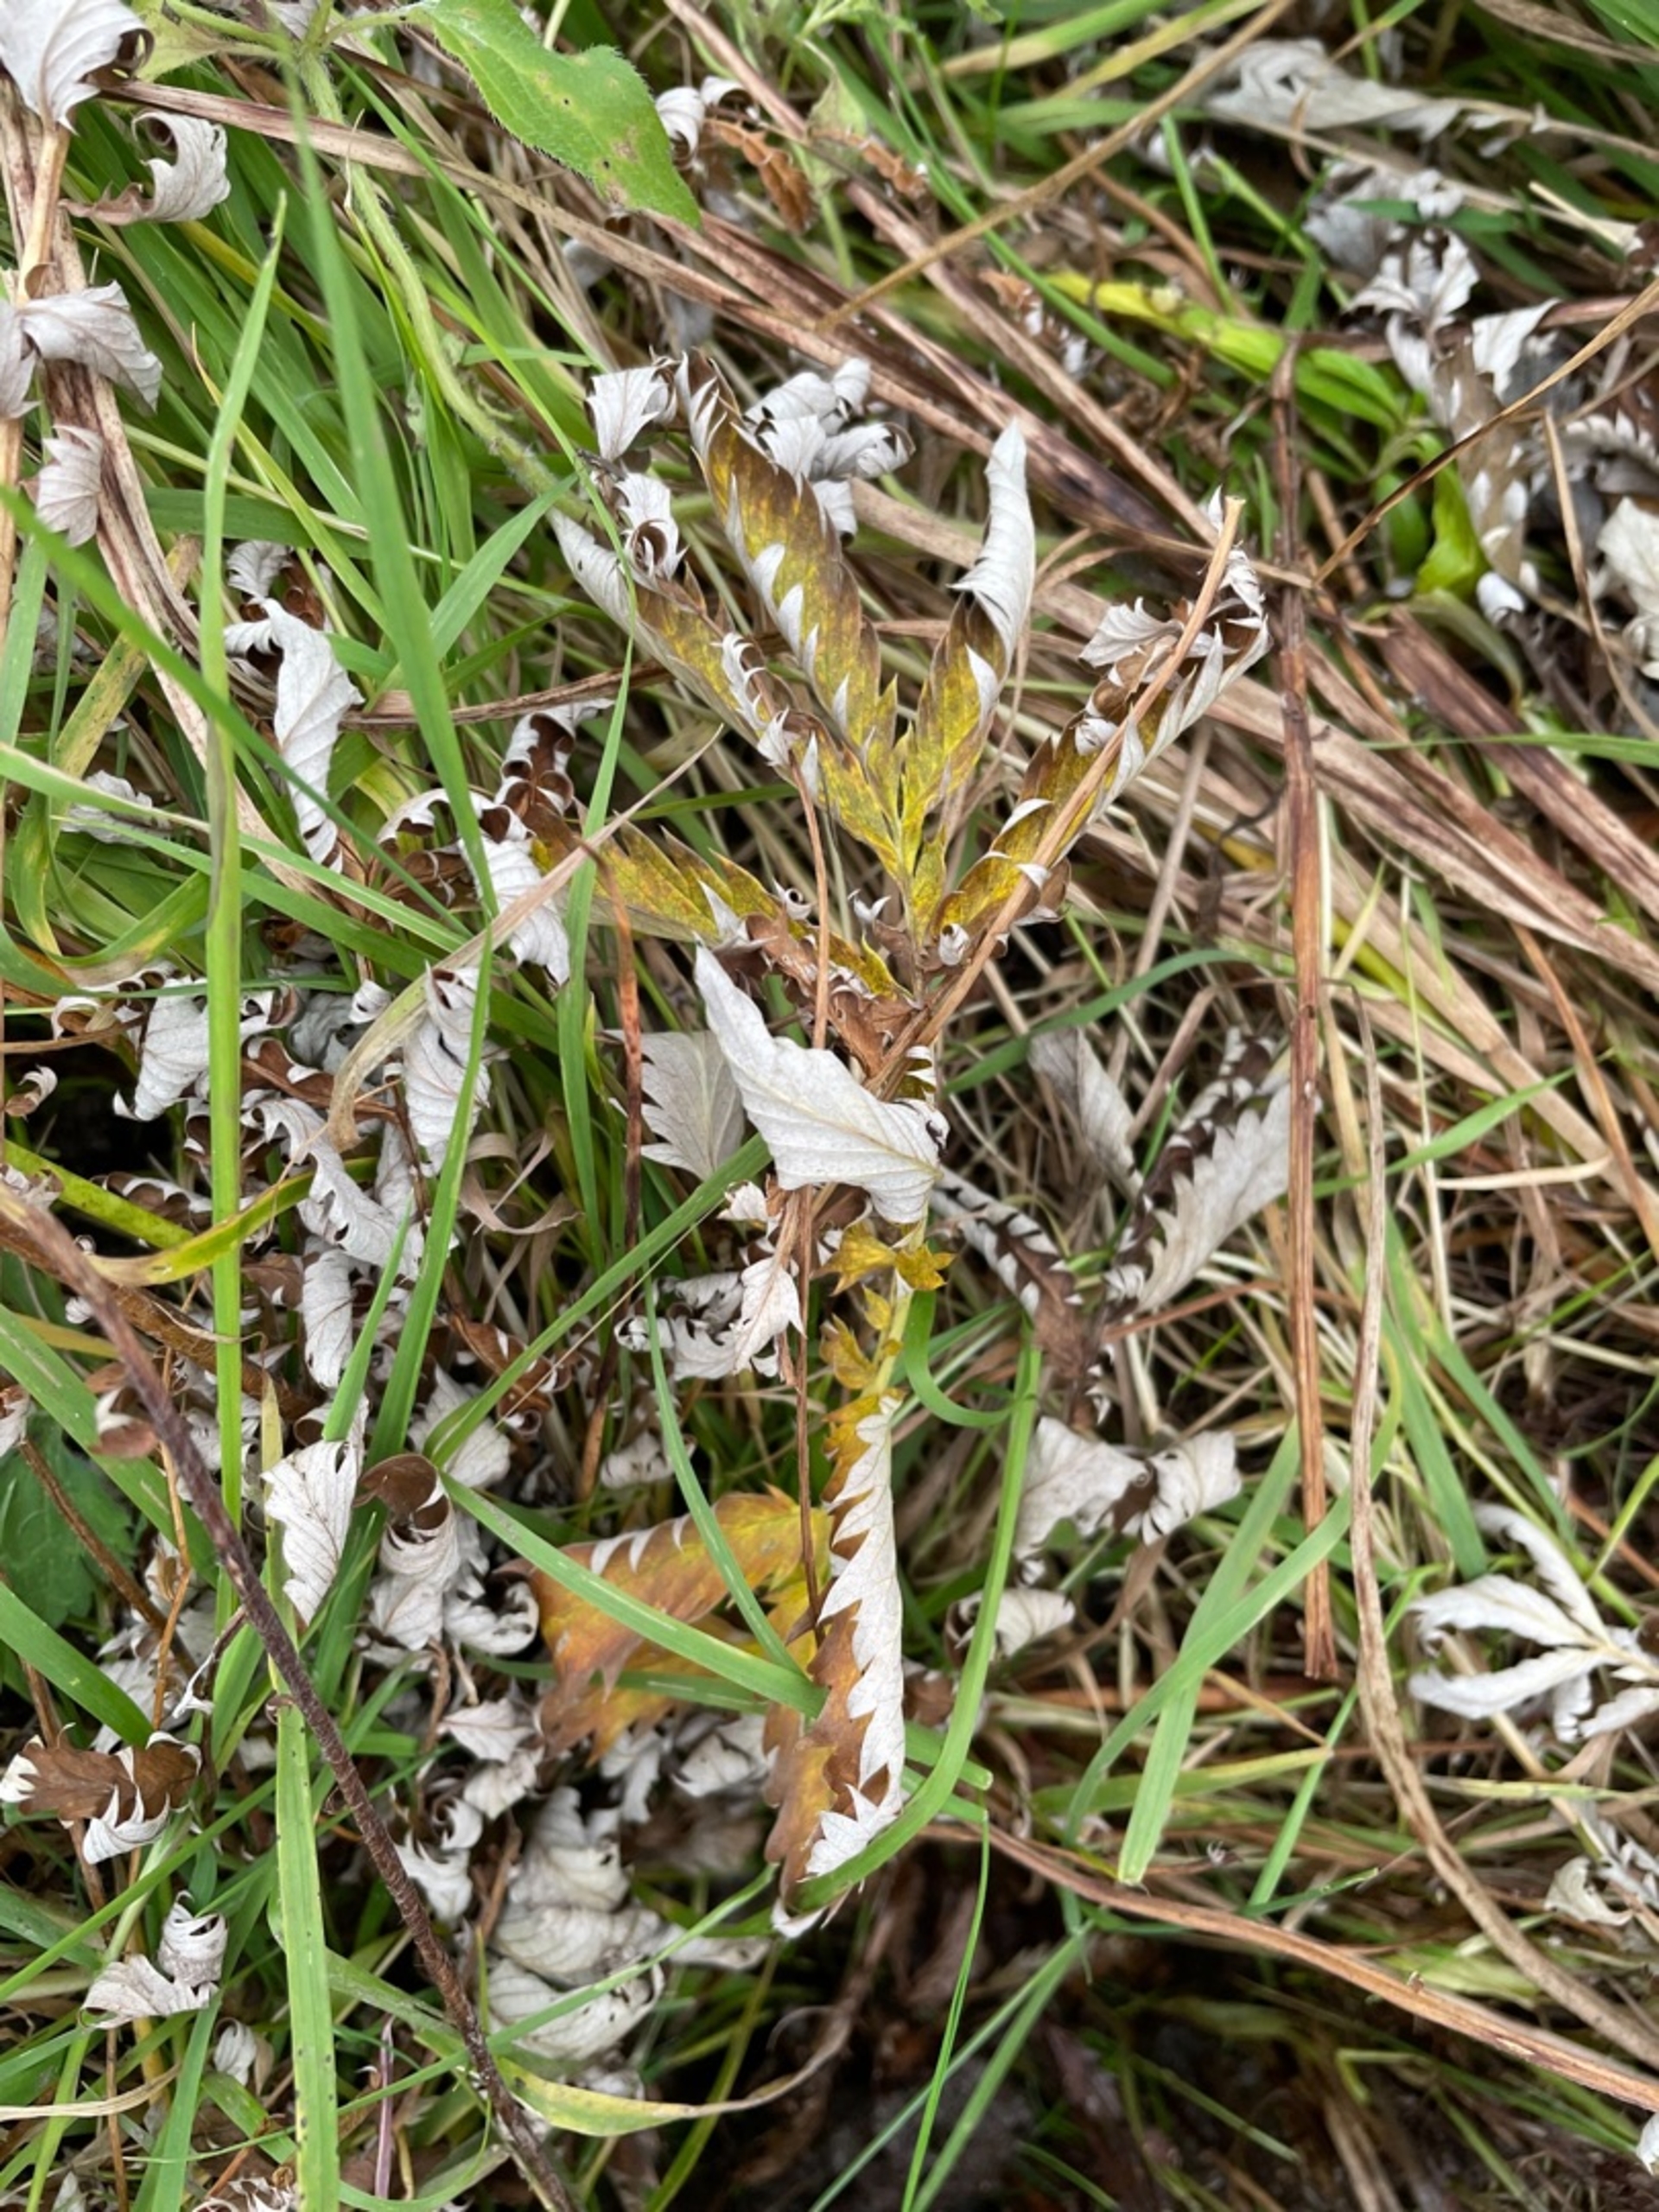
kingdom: Plantae
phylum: Tracheophyta
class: Magnoliopsida
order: Rosales
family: Rosaceae
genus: Argentina
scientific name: Argentina anserina
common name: Gåsepotentil
